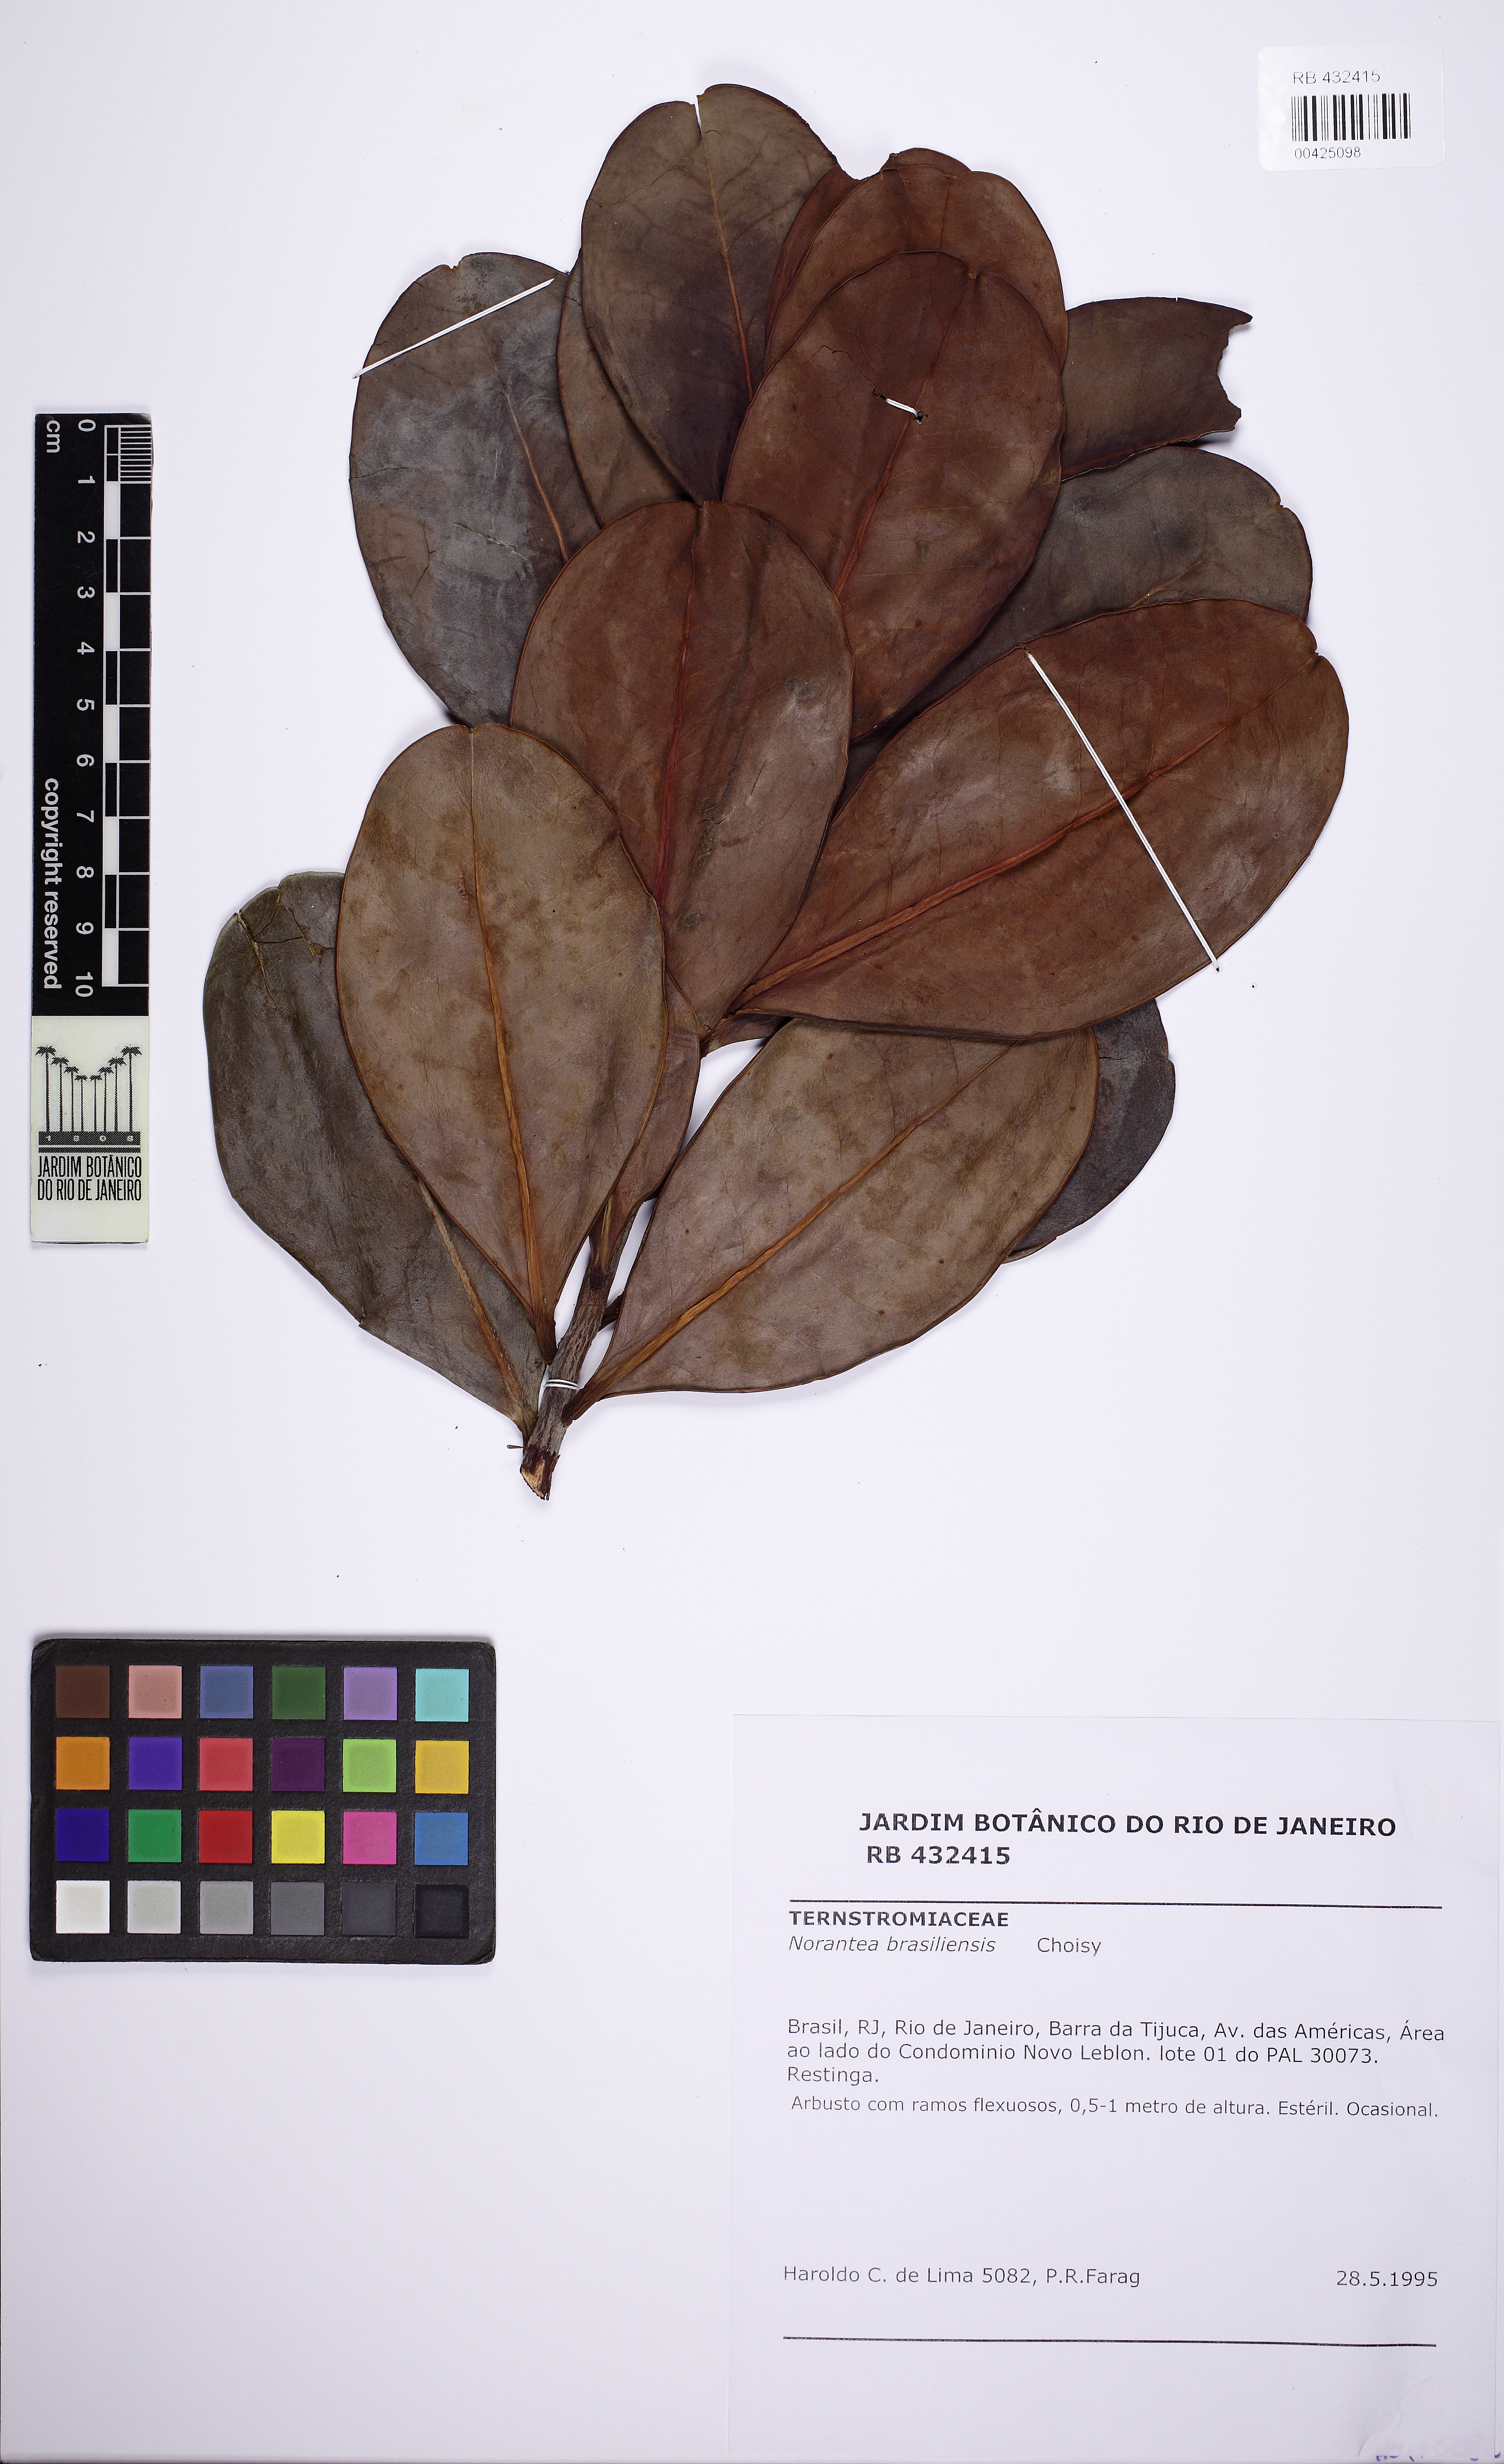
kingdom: Plantae
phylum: Tracheophyta
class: Magnoliopsida
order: Ericales
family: Marcgraviaceae
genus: Schwartzia
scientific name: Schwartzia brasiliensis
